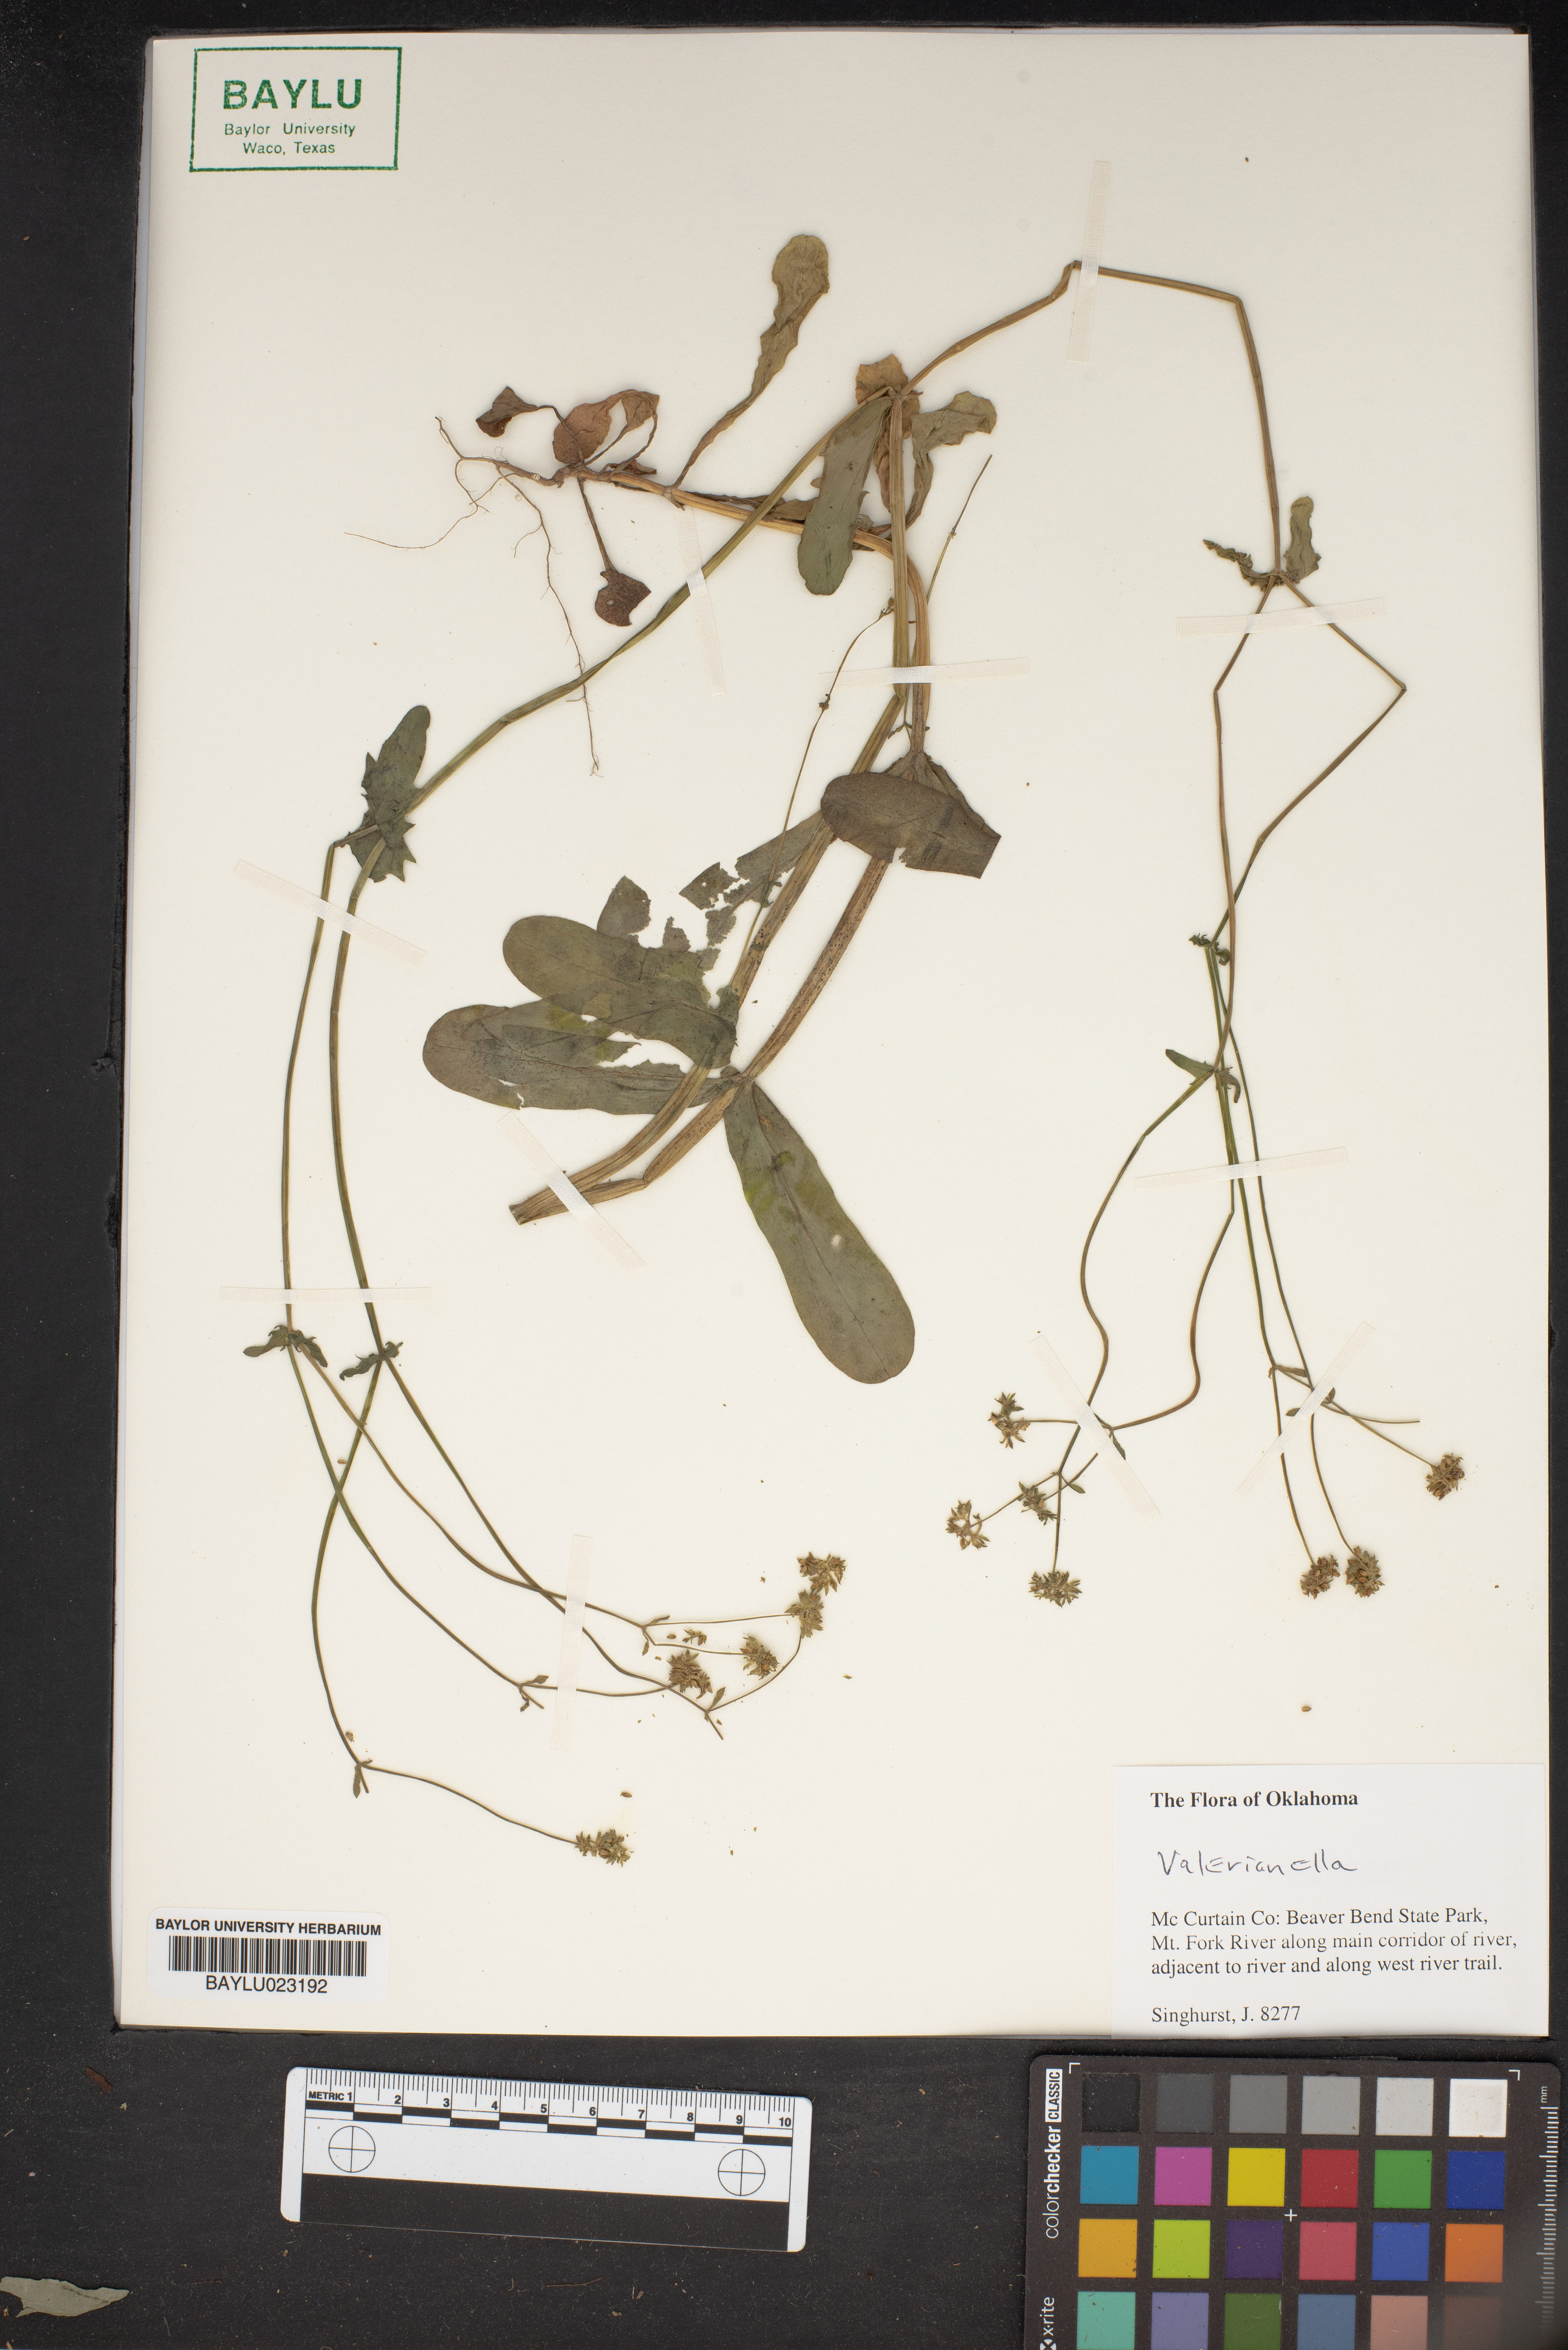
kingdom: Plantae
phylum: Tracheophyta
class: Magnoliopsida
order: Dipsacales
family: Caprifoliaceae
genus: Valerianella
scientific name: Valerianella
